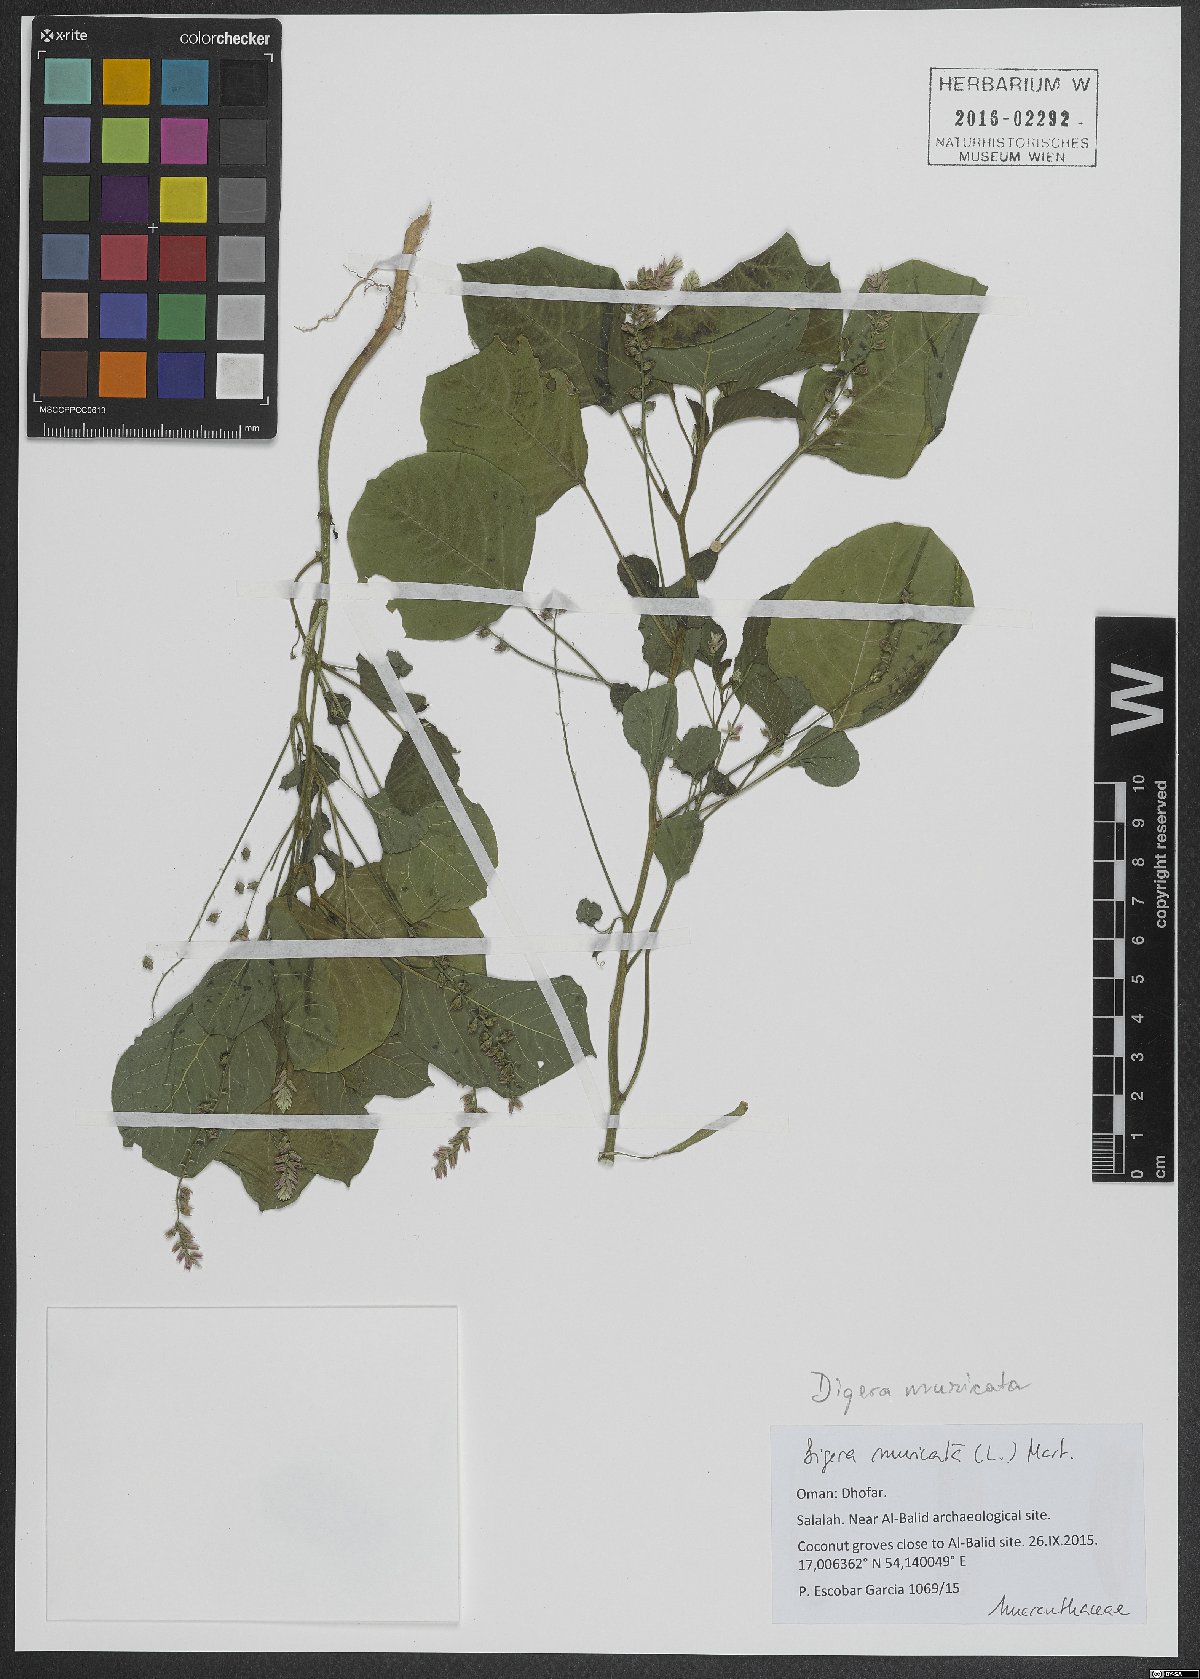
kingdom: Plantae
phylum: Tracheophyta
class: Magnoliopsida
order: Caryophyllales
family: Amaranthaceae
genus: Digera
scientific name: Digera muricata
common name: False amaranth
